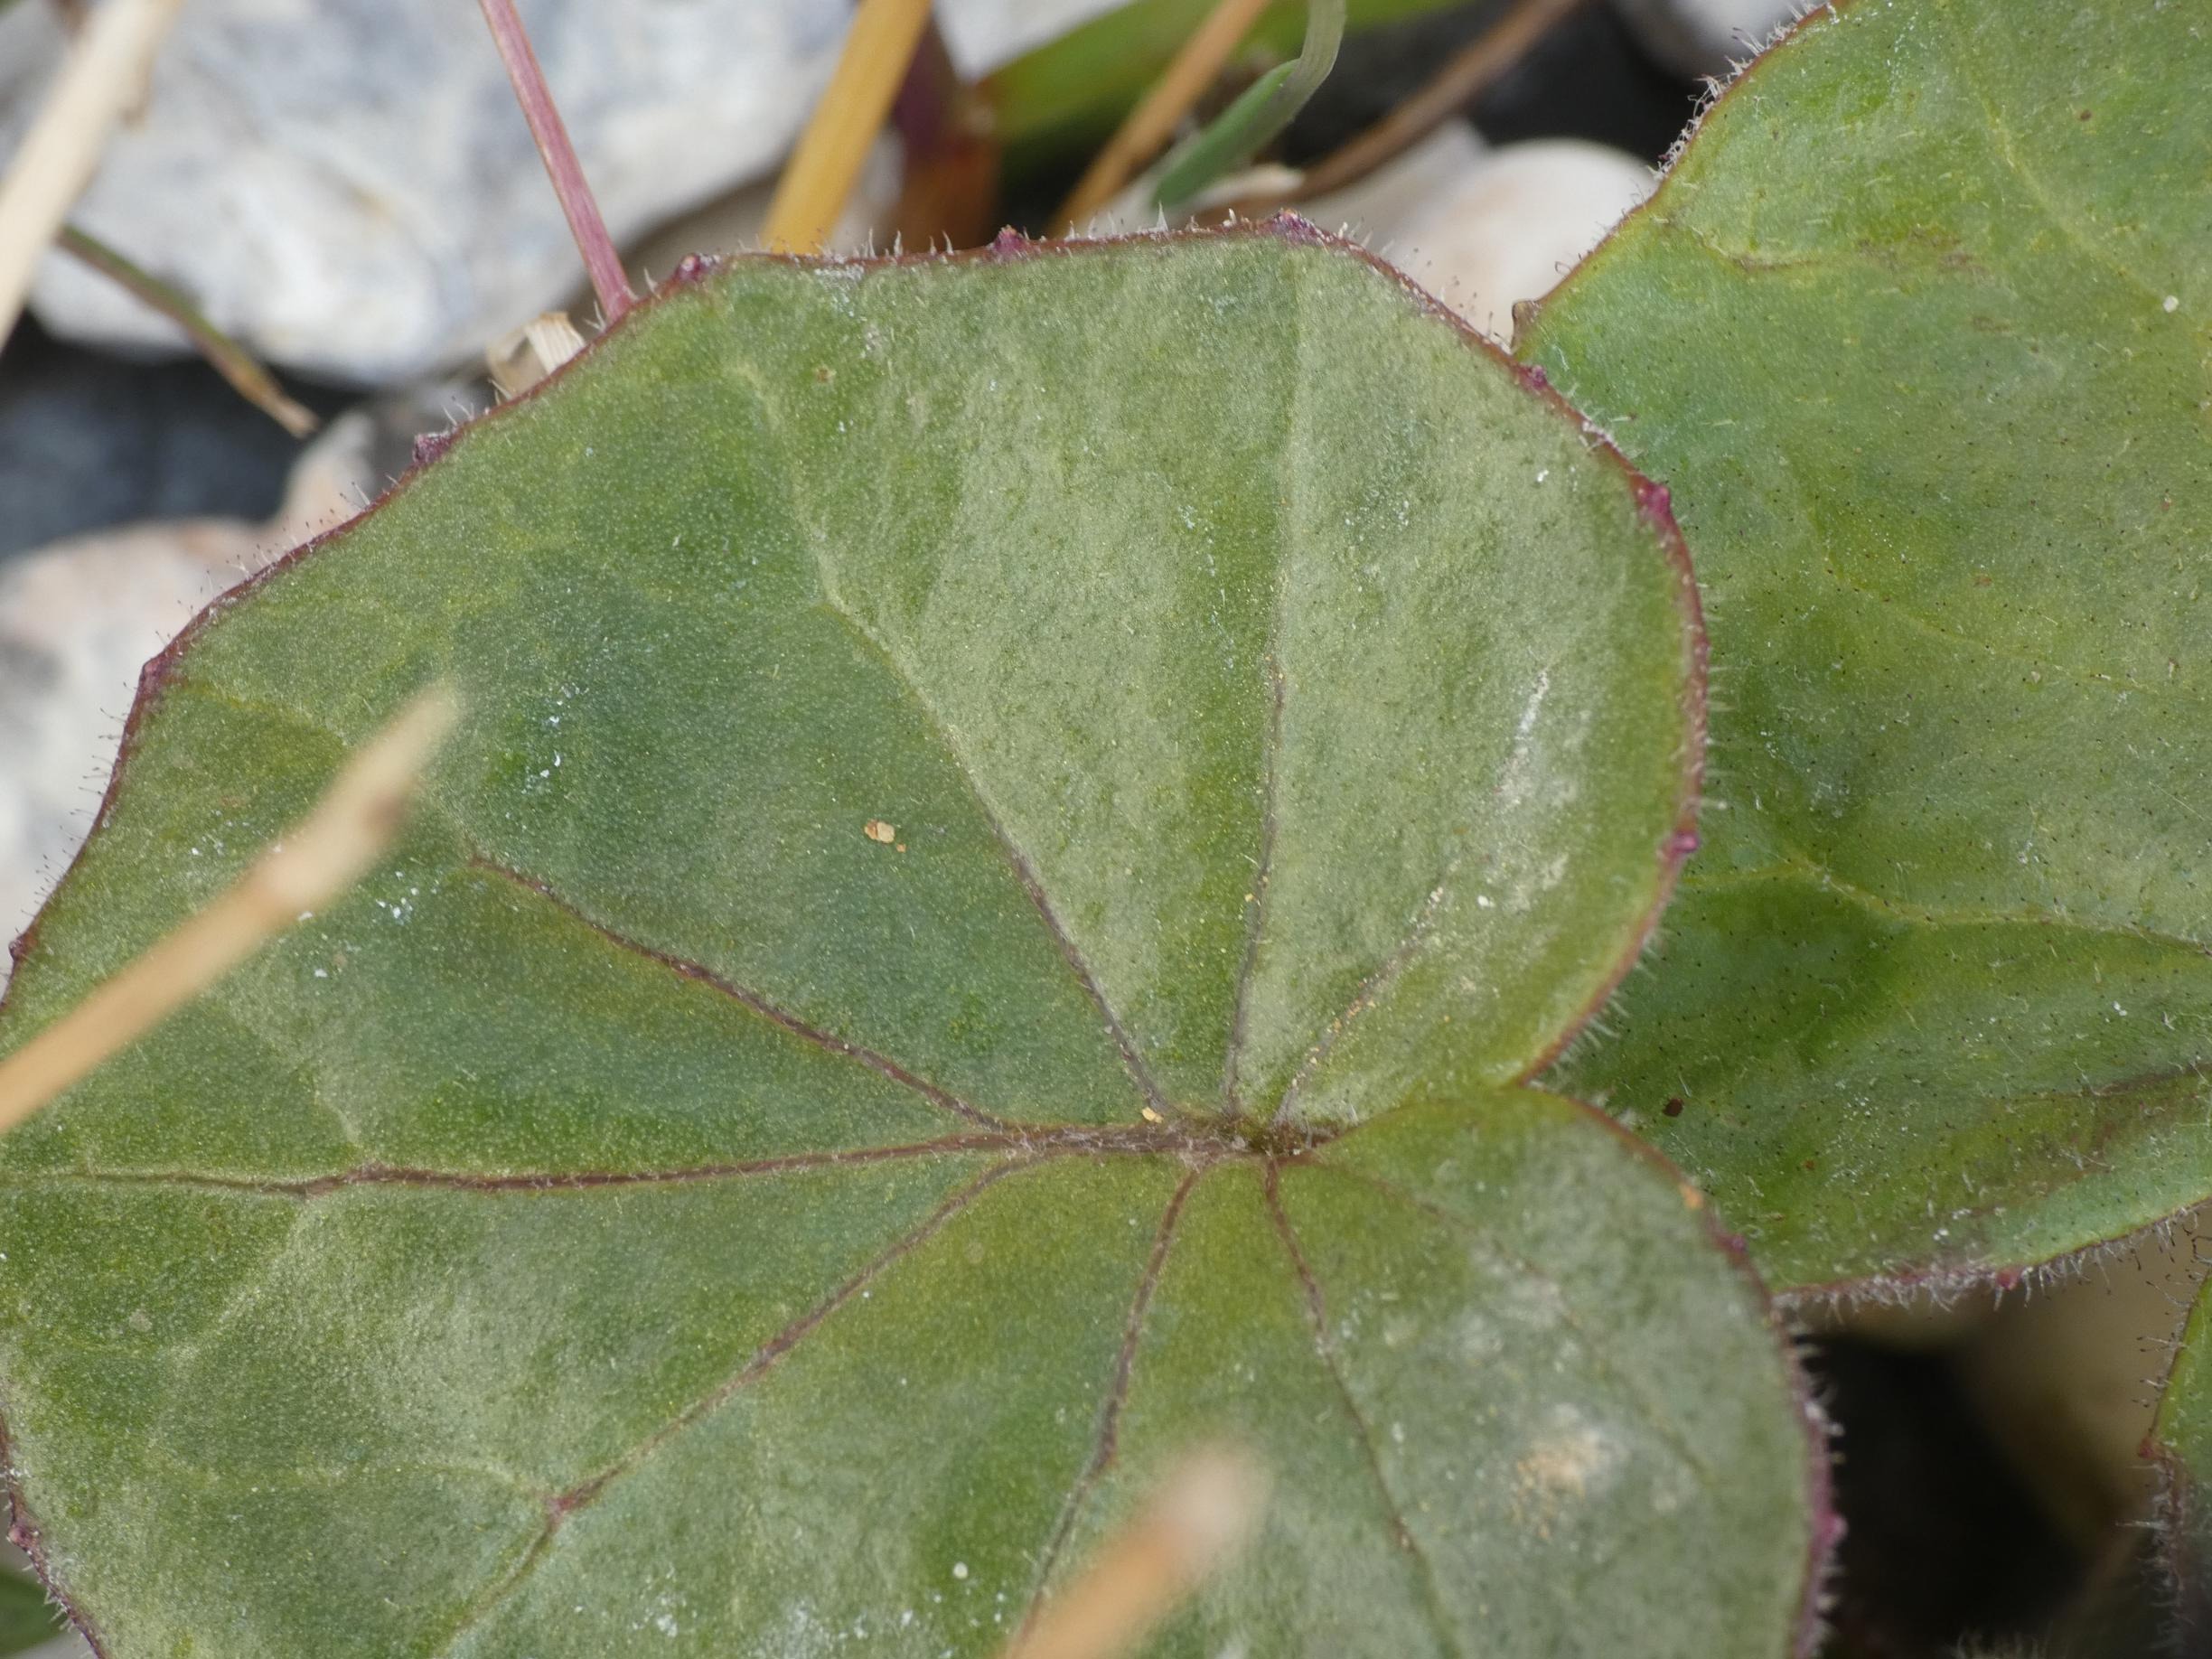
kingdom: Plantae
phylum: Tracheophyta
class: Magnoliopsida
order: Asterales
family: Asteraceae
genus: Tussilago
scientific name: Tussilago farfara
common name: Følfod
